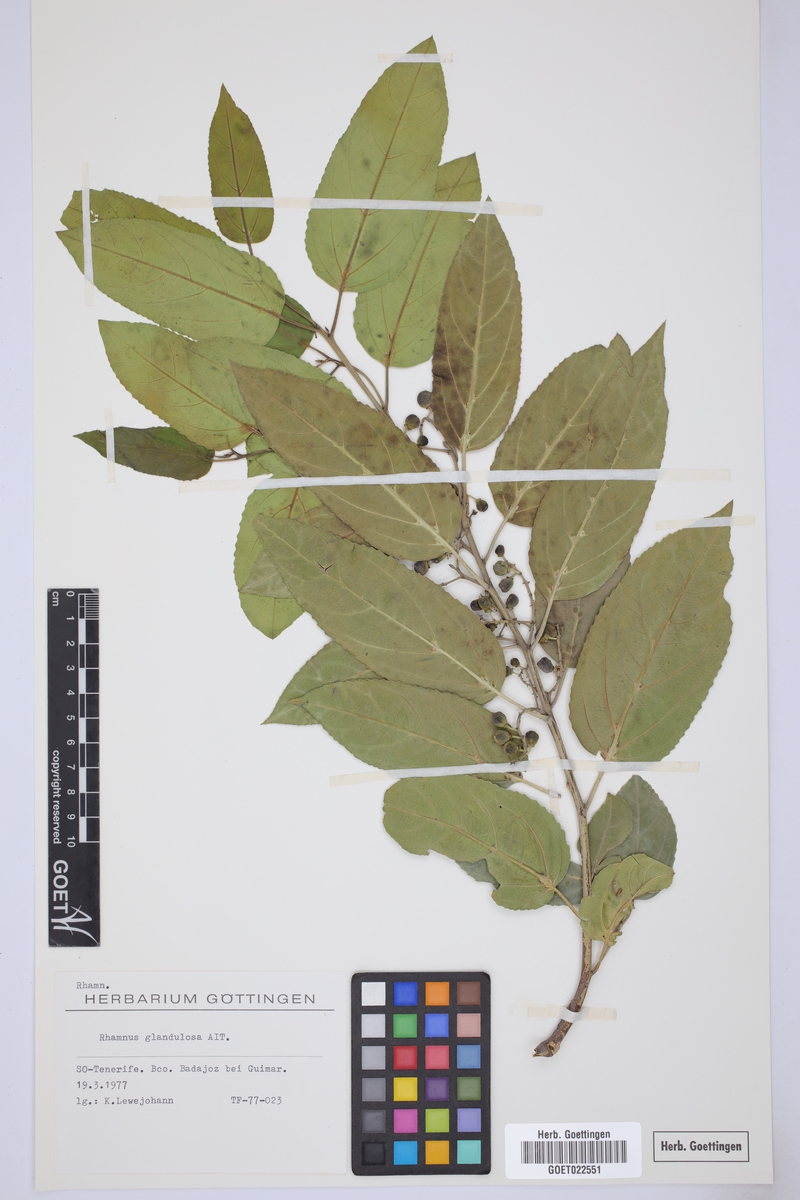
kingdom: Plantae
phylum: Tracheophyta
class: Magnoliopsida
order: Rosales
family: Rhamnaceae
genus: Rhamnus
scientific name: Rhamnus glandulosa
